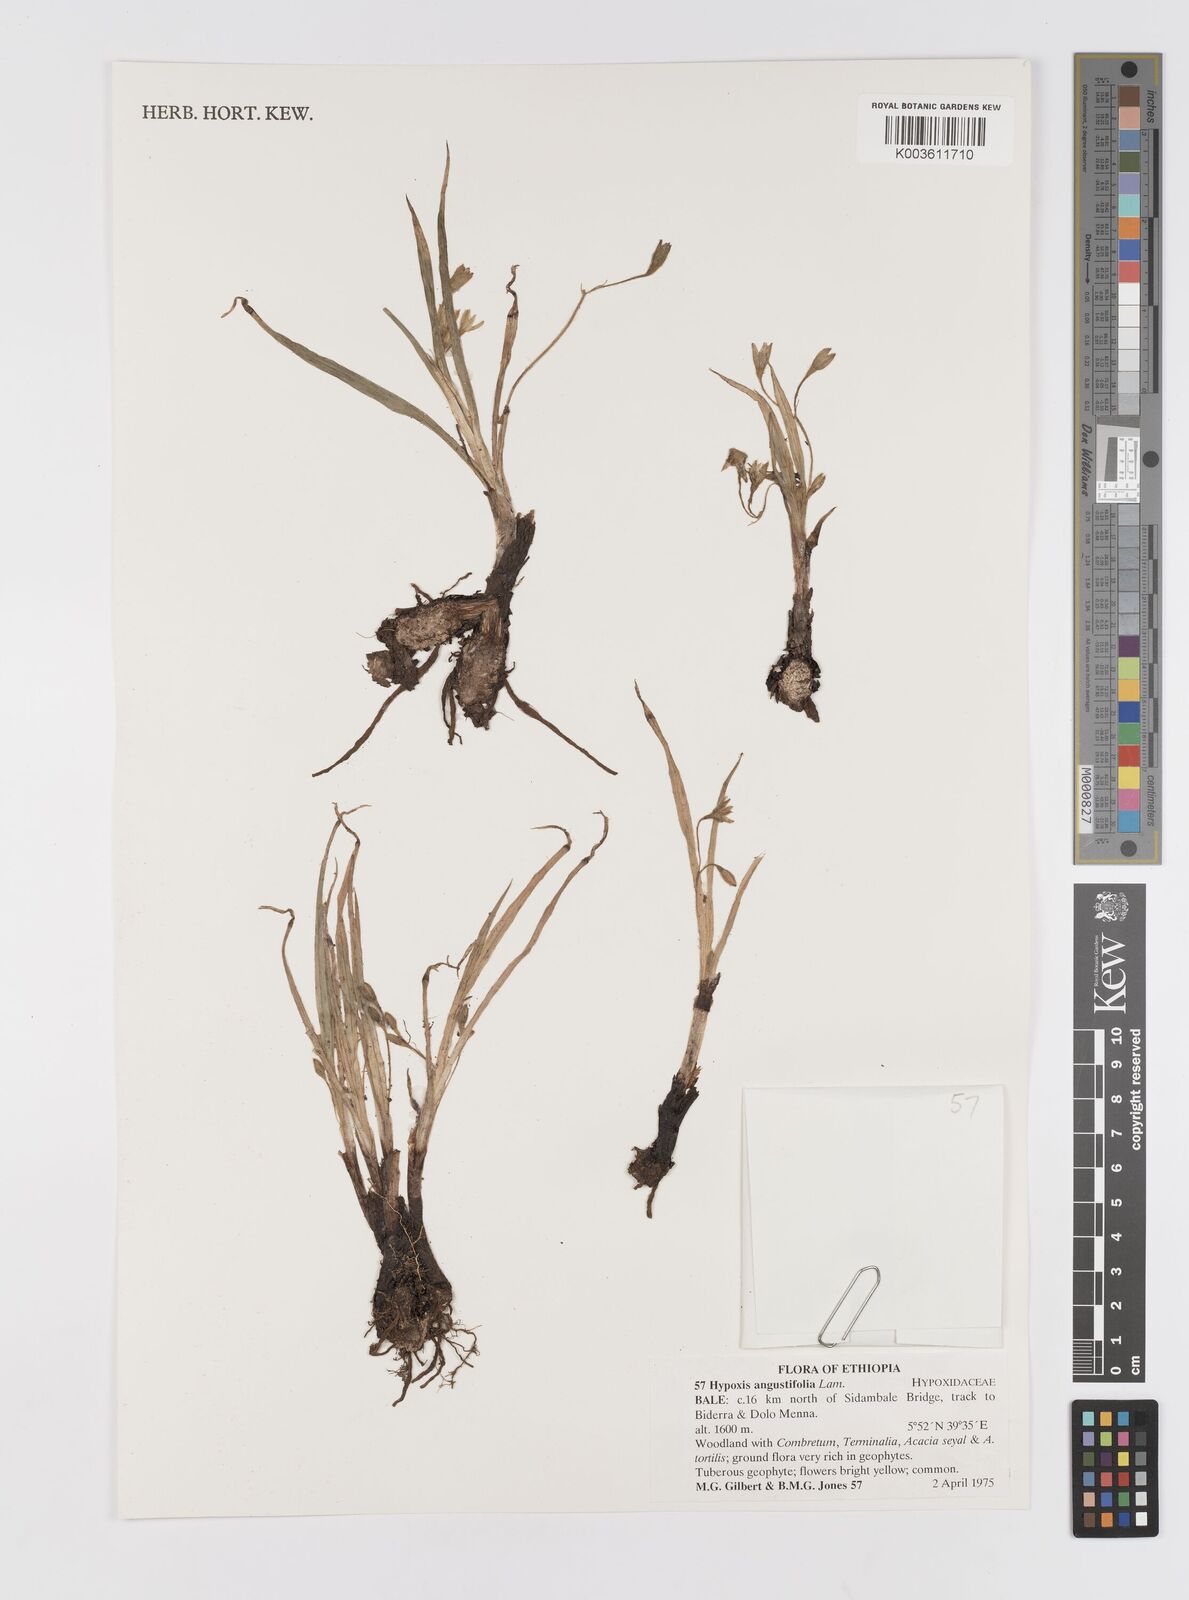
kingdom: Plantae
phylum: Tracheophyta
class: Liliopsida
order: Asparagales
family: Hypoxidaceae
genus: Hypoxis
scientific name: Hypoxis villosa
